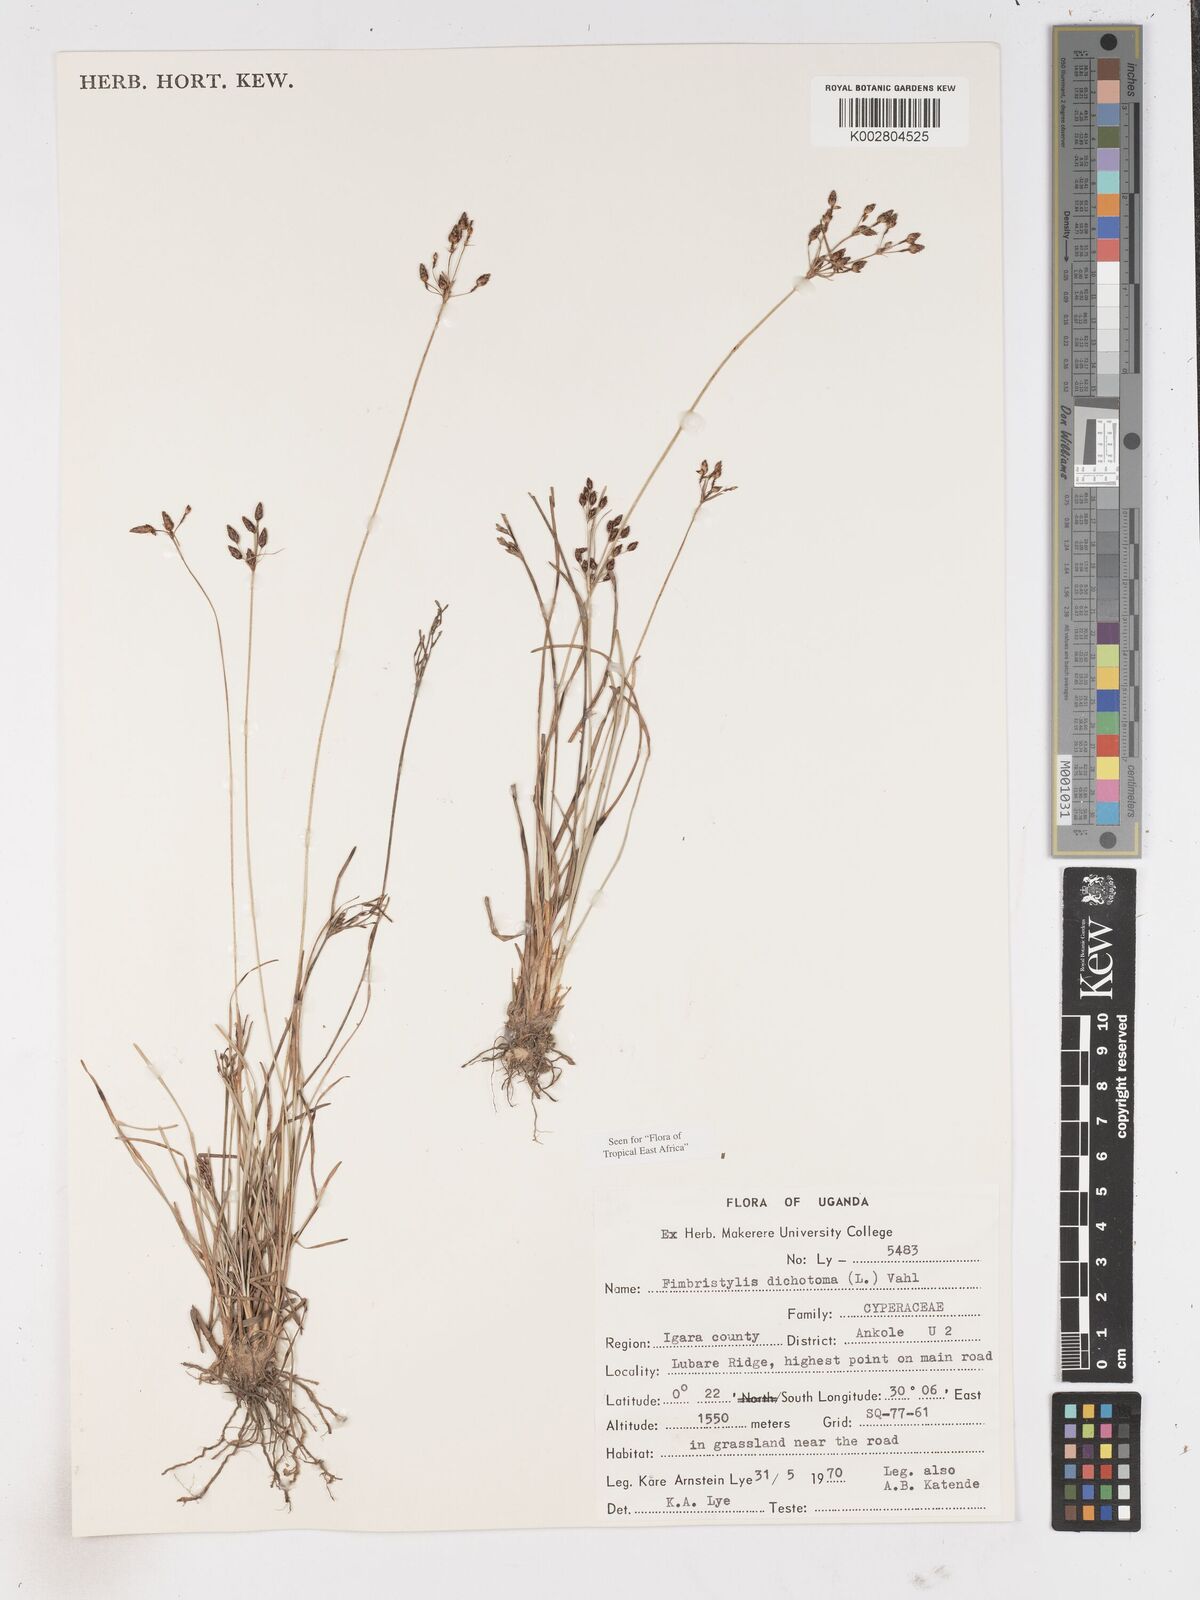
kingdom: Plantae
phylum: Tracheophyta
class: Liliopsida
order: Poales
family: Cyperaceae
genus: Fimbristylis
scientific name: Fimbristylis dichotoma
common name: Forked fimbry
